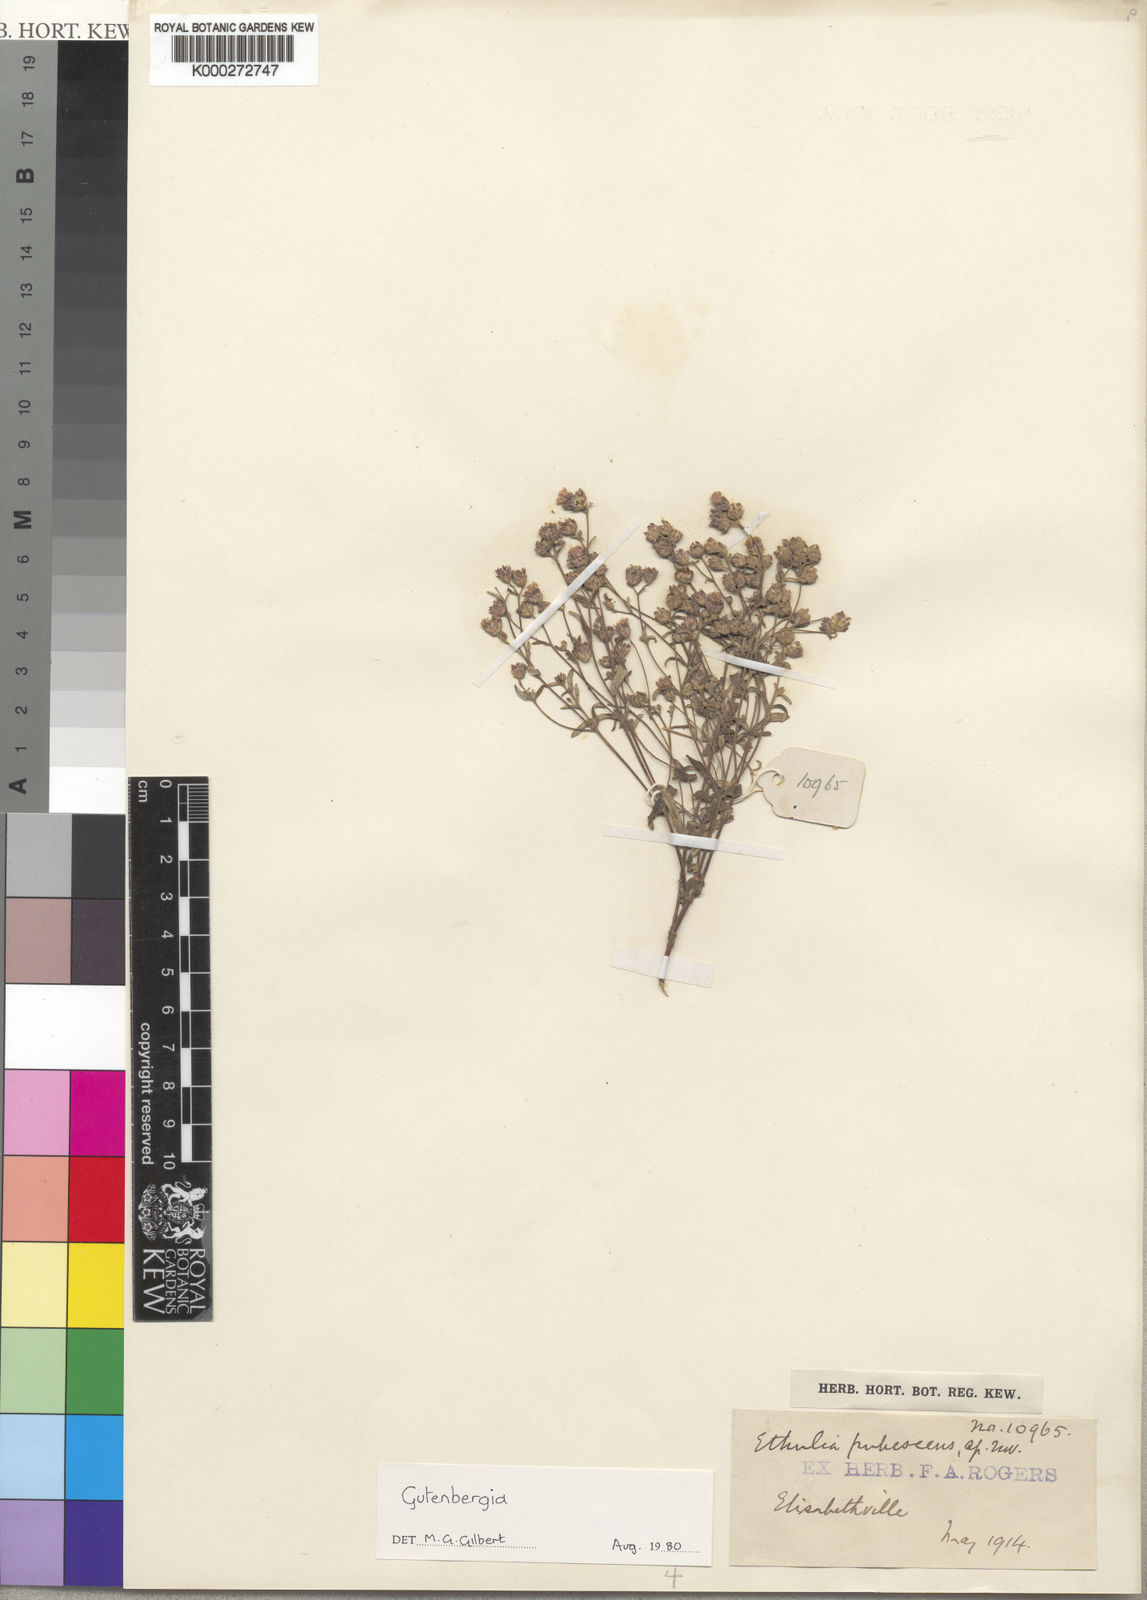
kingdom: Plantae
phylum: Tracheophyta
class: Magnoliopsida
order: Asterales
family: Asteraceae
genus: Gutenbergia
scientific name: Gutenbergia pubescens
